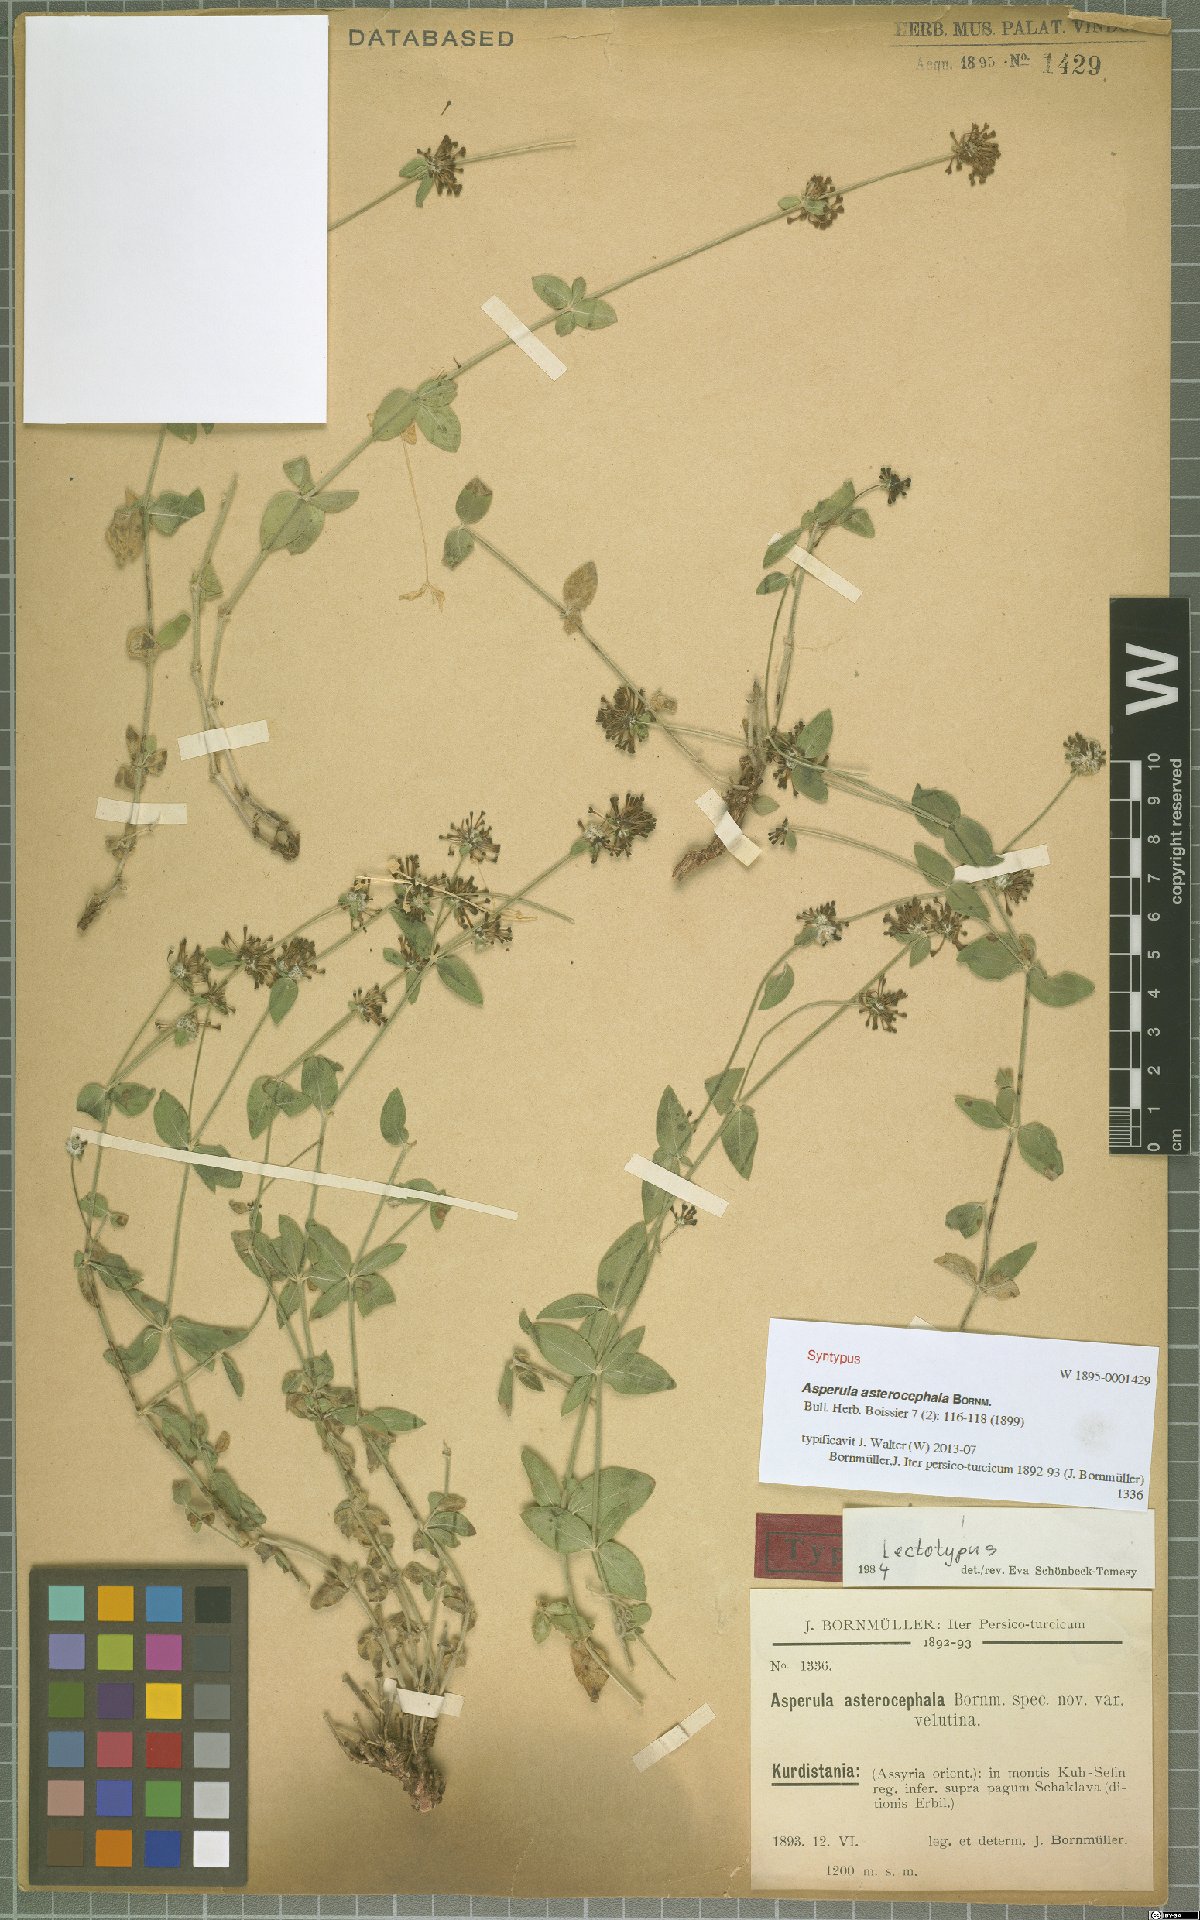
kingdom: Plantae
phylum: Tracheophyta
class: Magnoliopsida
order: Gentianales
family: Rubiaceae
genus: Asperula
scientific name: Asperula asterocephala
